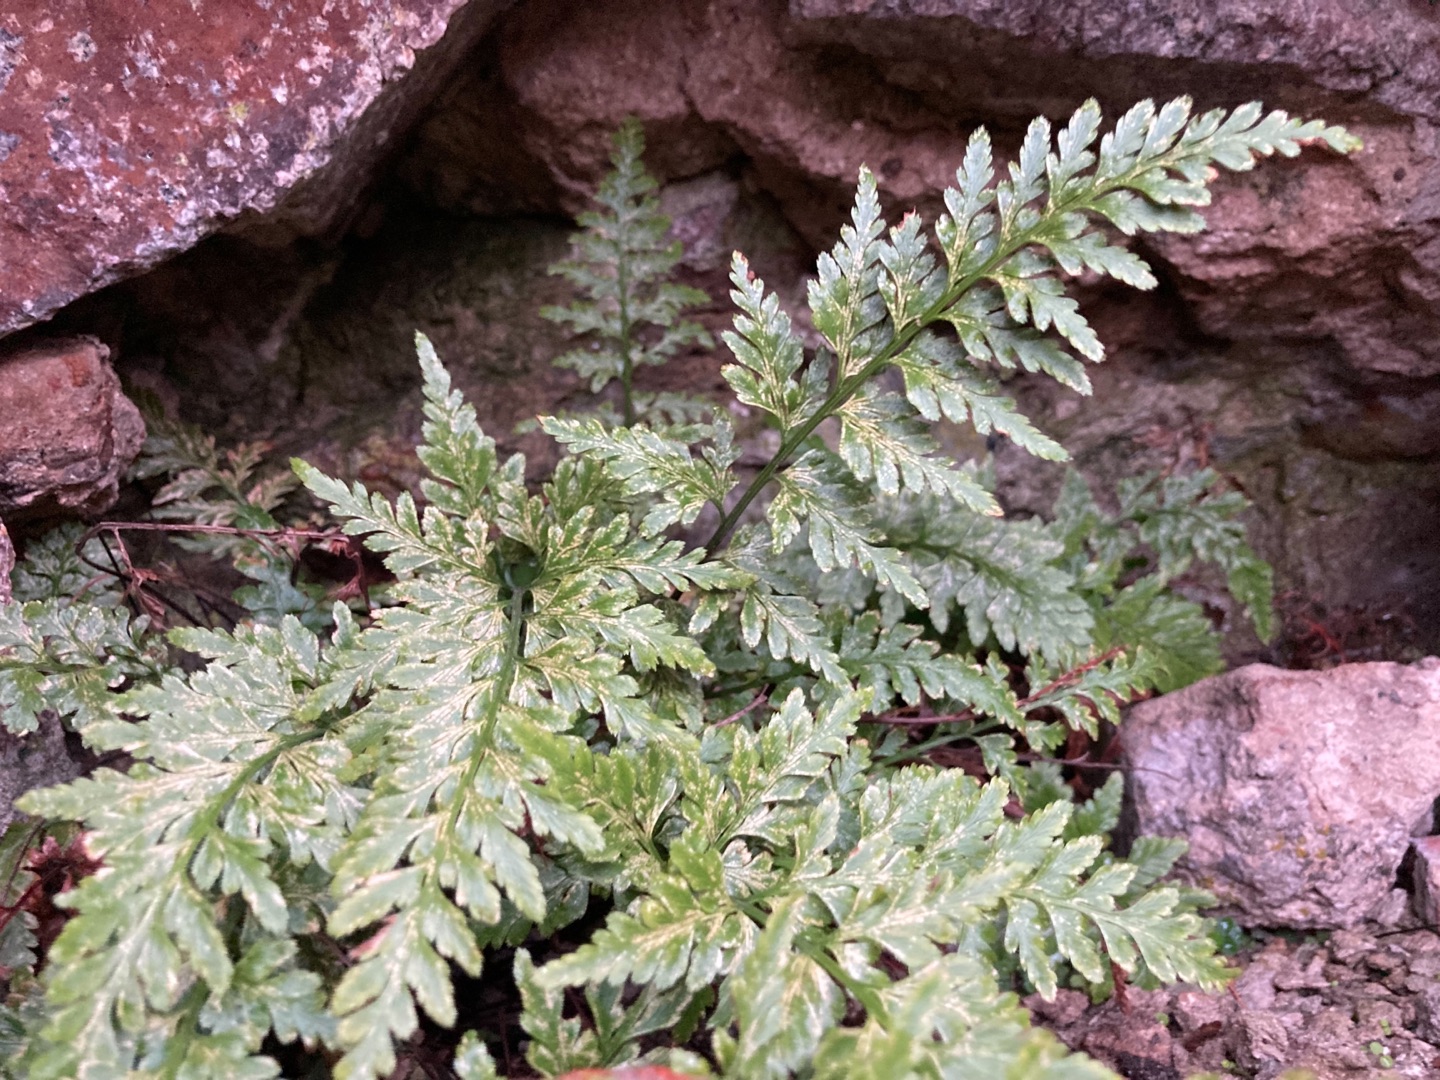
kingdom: Plantae
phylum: Tracheophyta
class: Polypodiopsida
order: Polypodiales
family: Aspleniaceae
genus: Asplenium
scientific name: Asplenium adiantum-nigrum
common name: Sort radeløv
